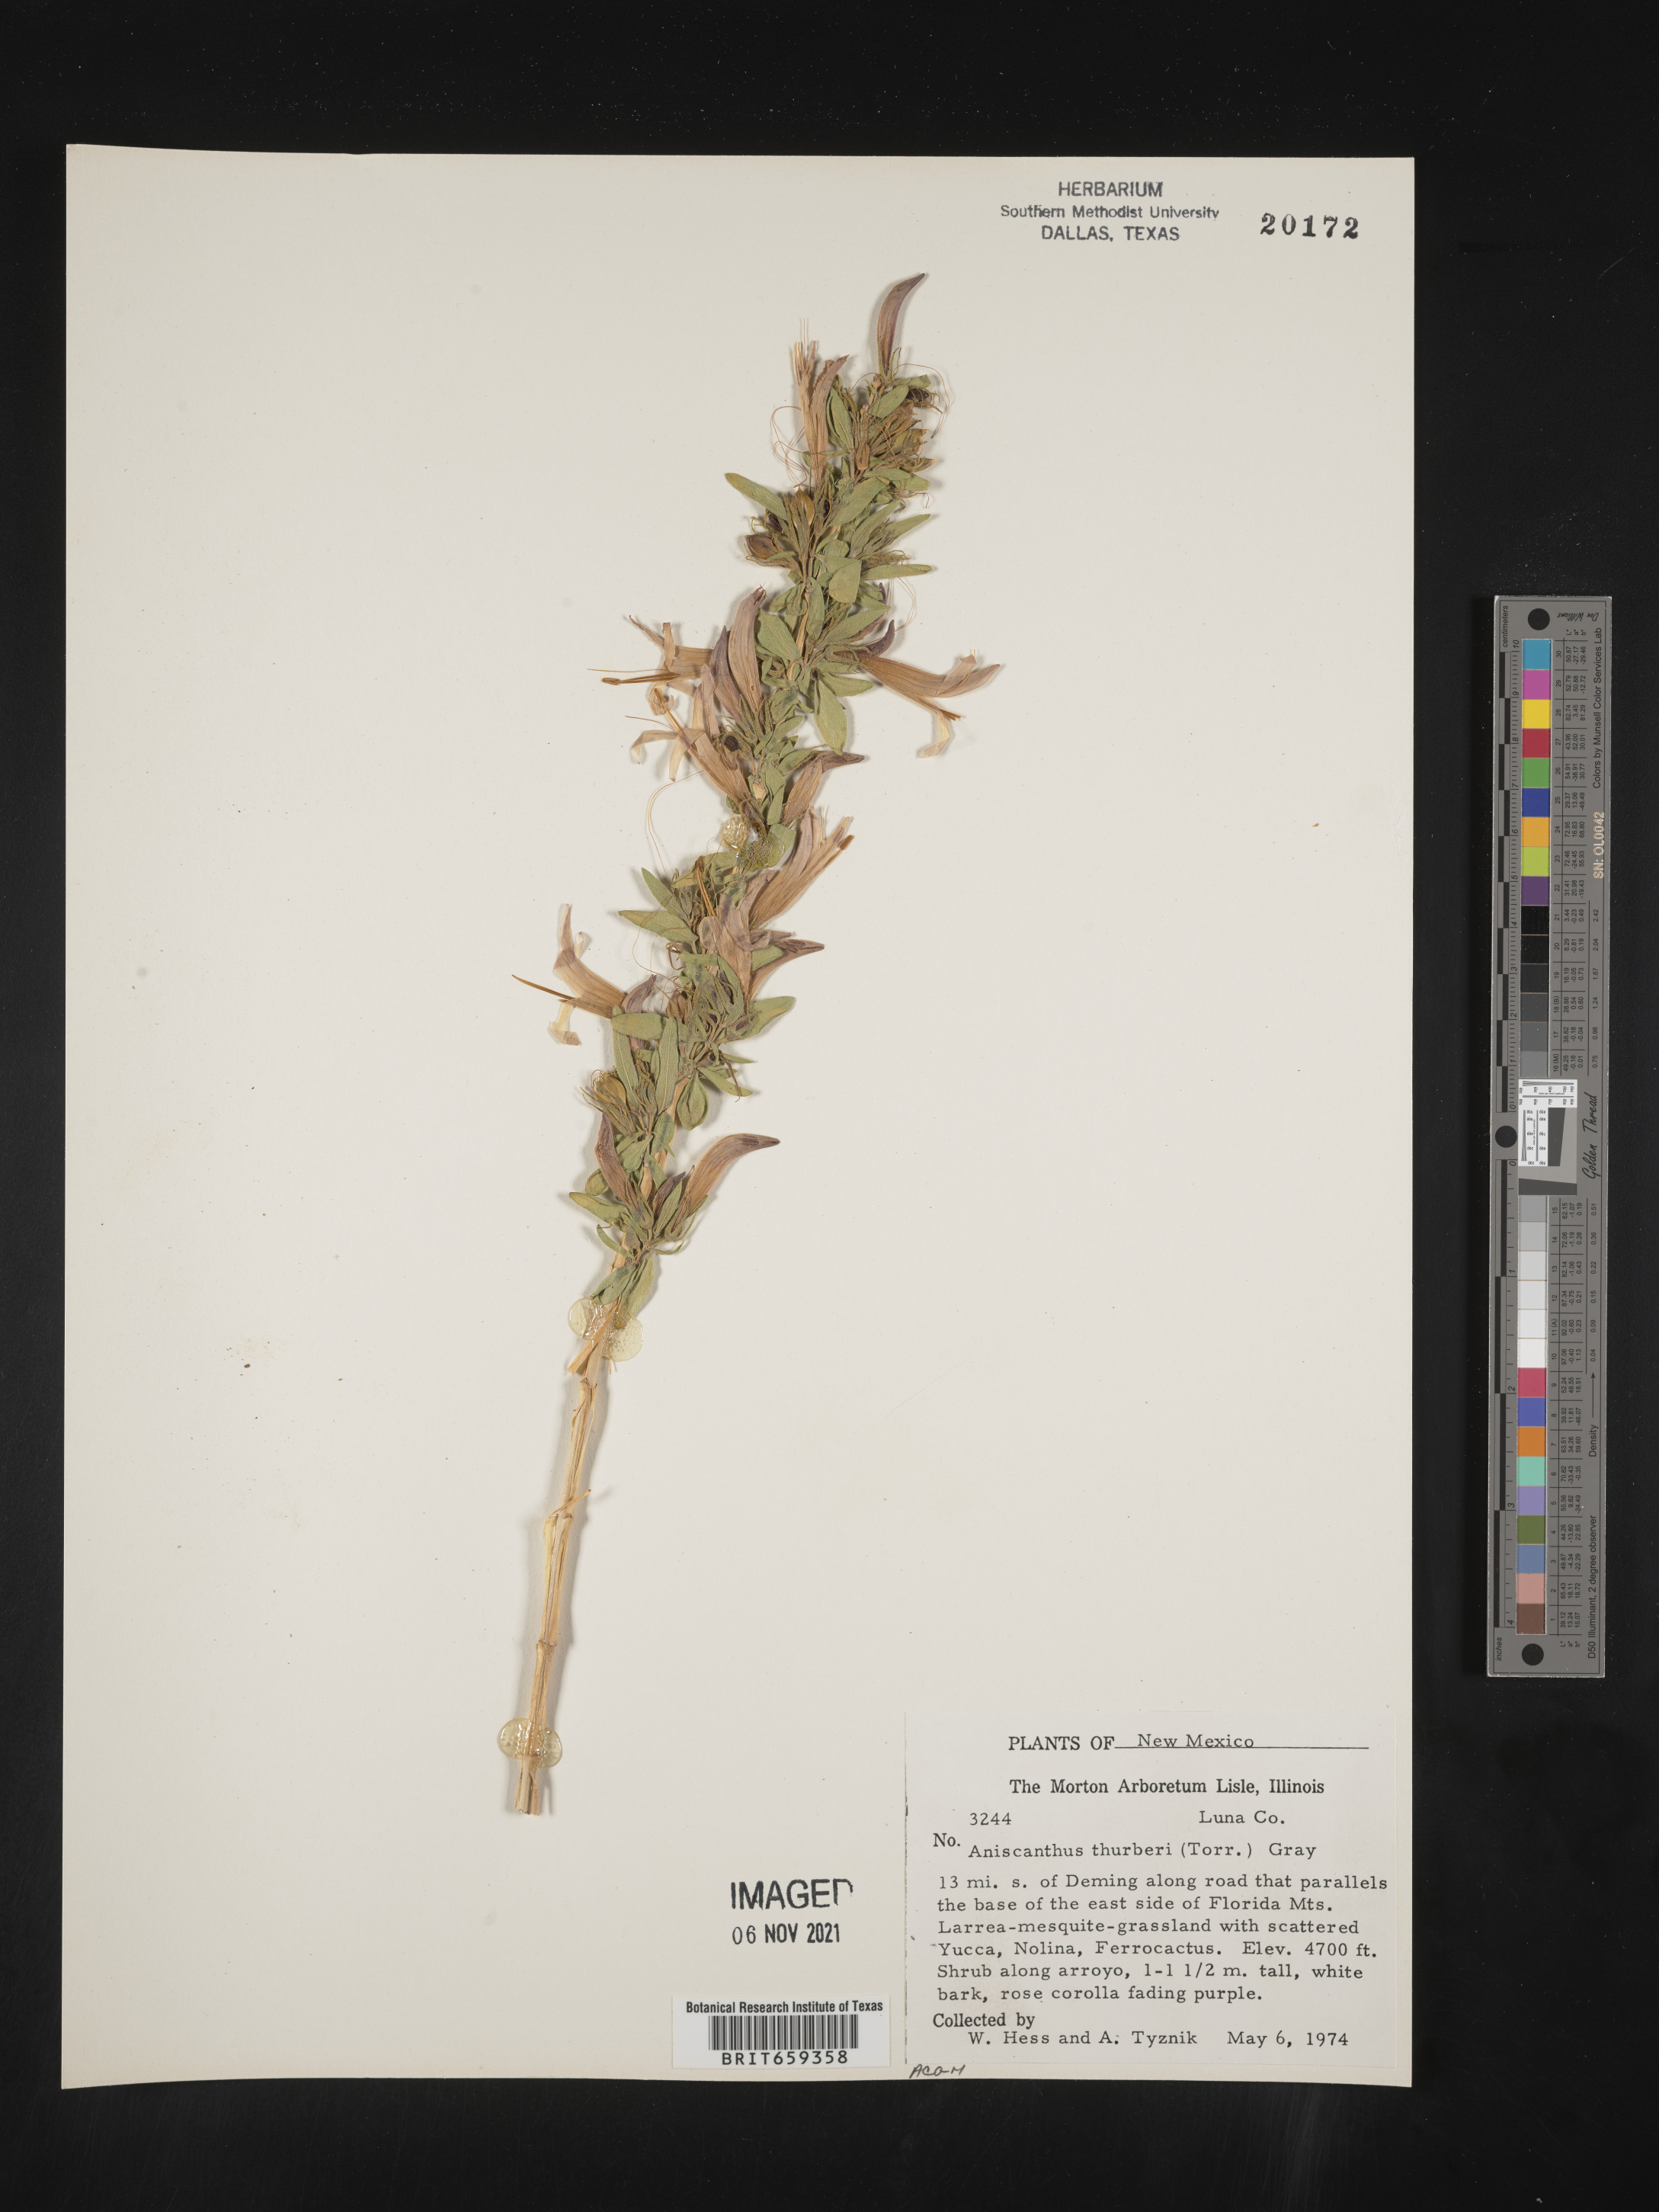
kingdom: Plantae
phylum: Tracheophyta
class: Magnoliopsida
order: Lamiales
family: Acanthaceae
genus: Anisacanthus
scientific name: Anisacanthus
